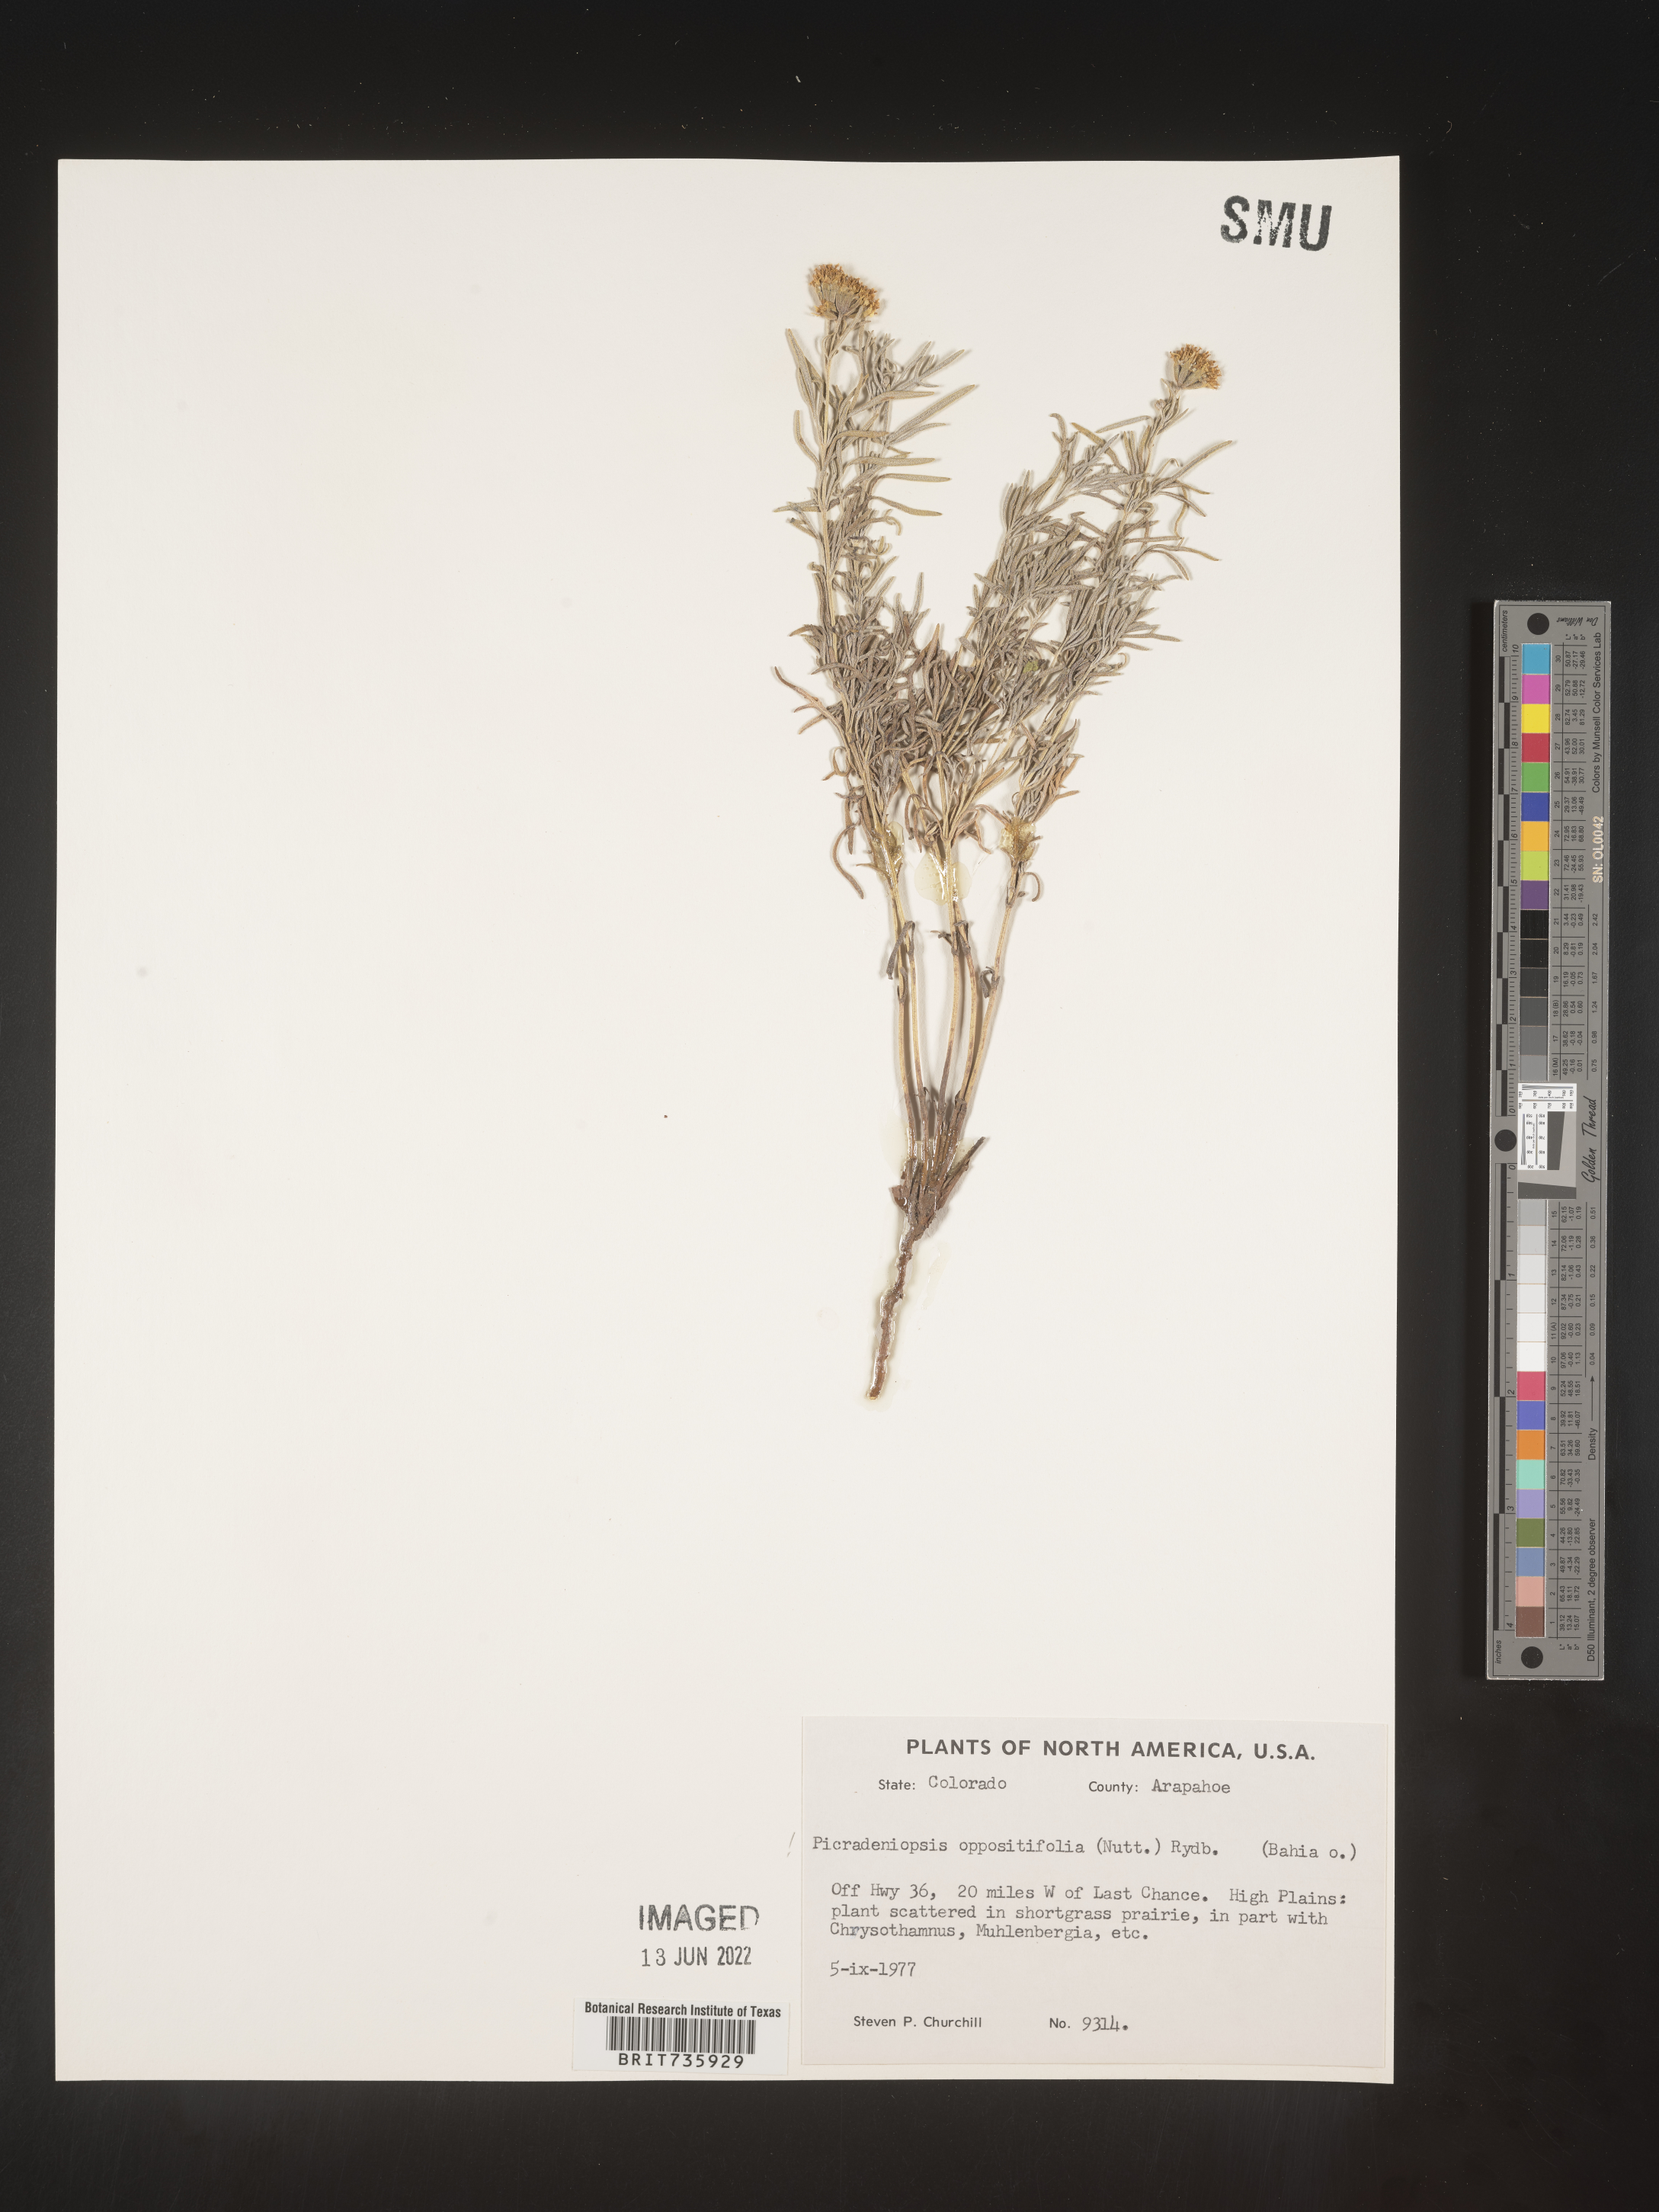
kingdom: Plantae
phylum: Tracheophyta
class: Magnoliopsida
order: Asterales
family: Asteraceae
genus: Bahia
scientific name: Bahia oppositifolia
